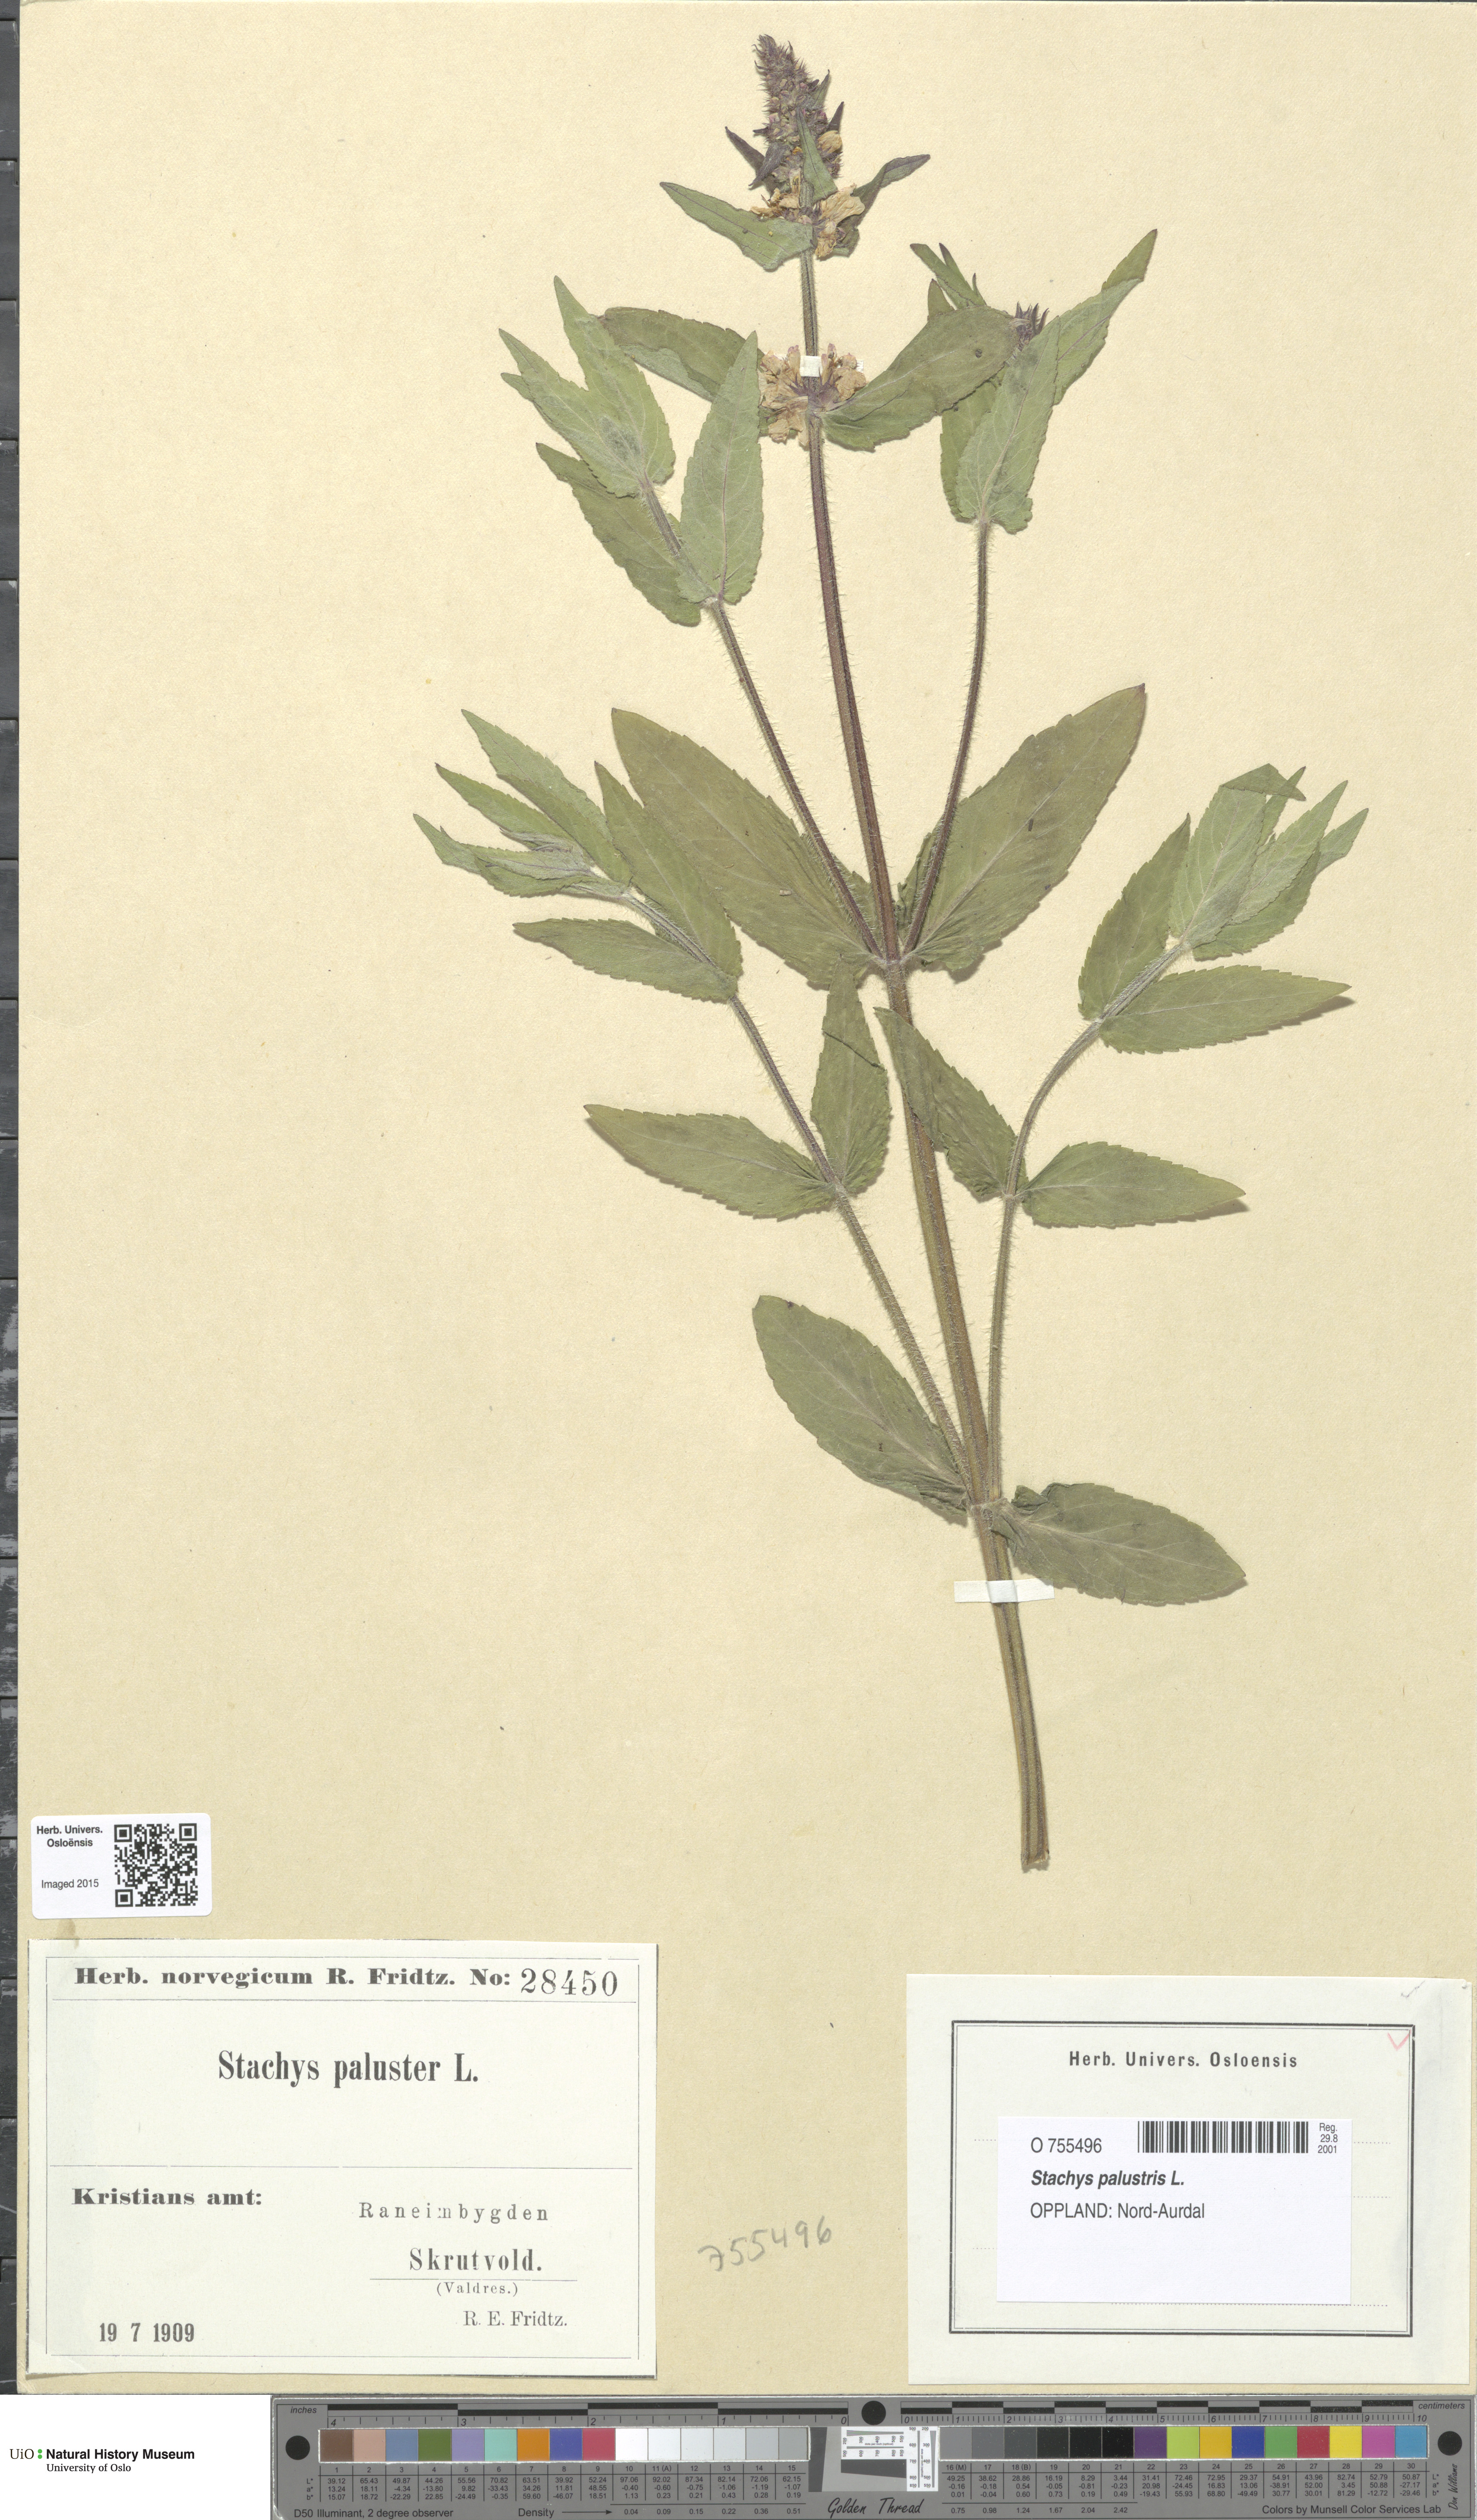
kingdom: Plantae
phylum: Tracheophyta
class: Magnoliopsida
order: Lamiales
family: Lamiaceae
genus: Stachys
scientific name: Stachys palustris
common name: Marsh woundwort
